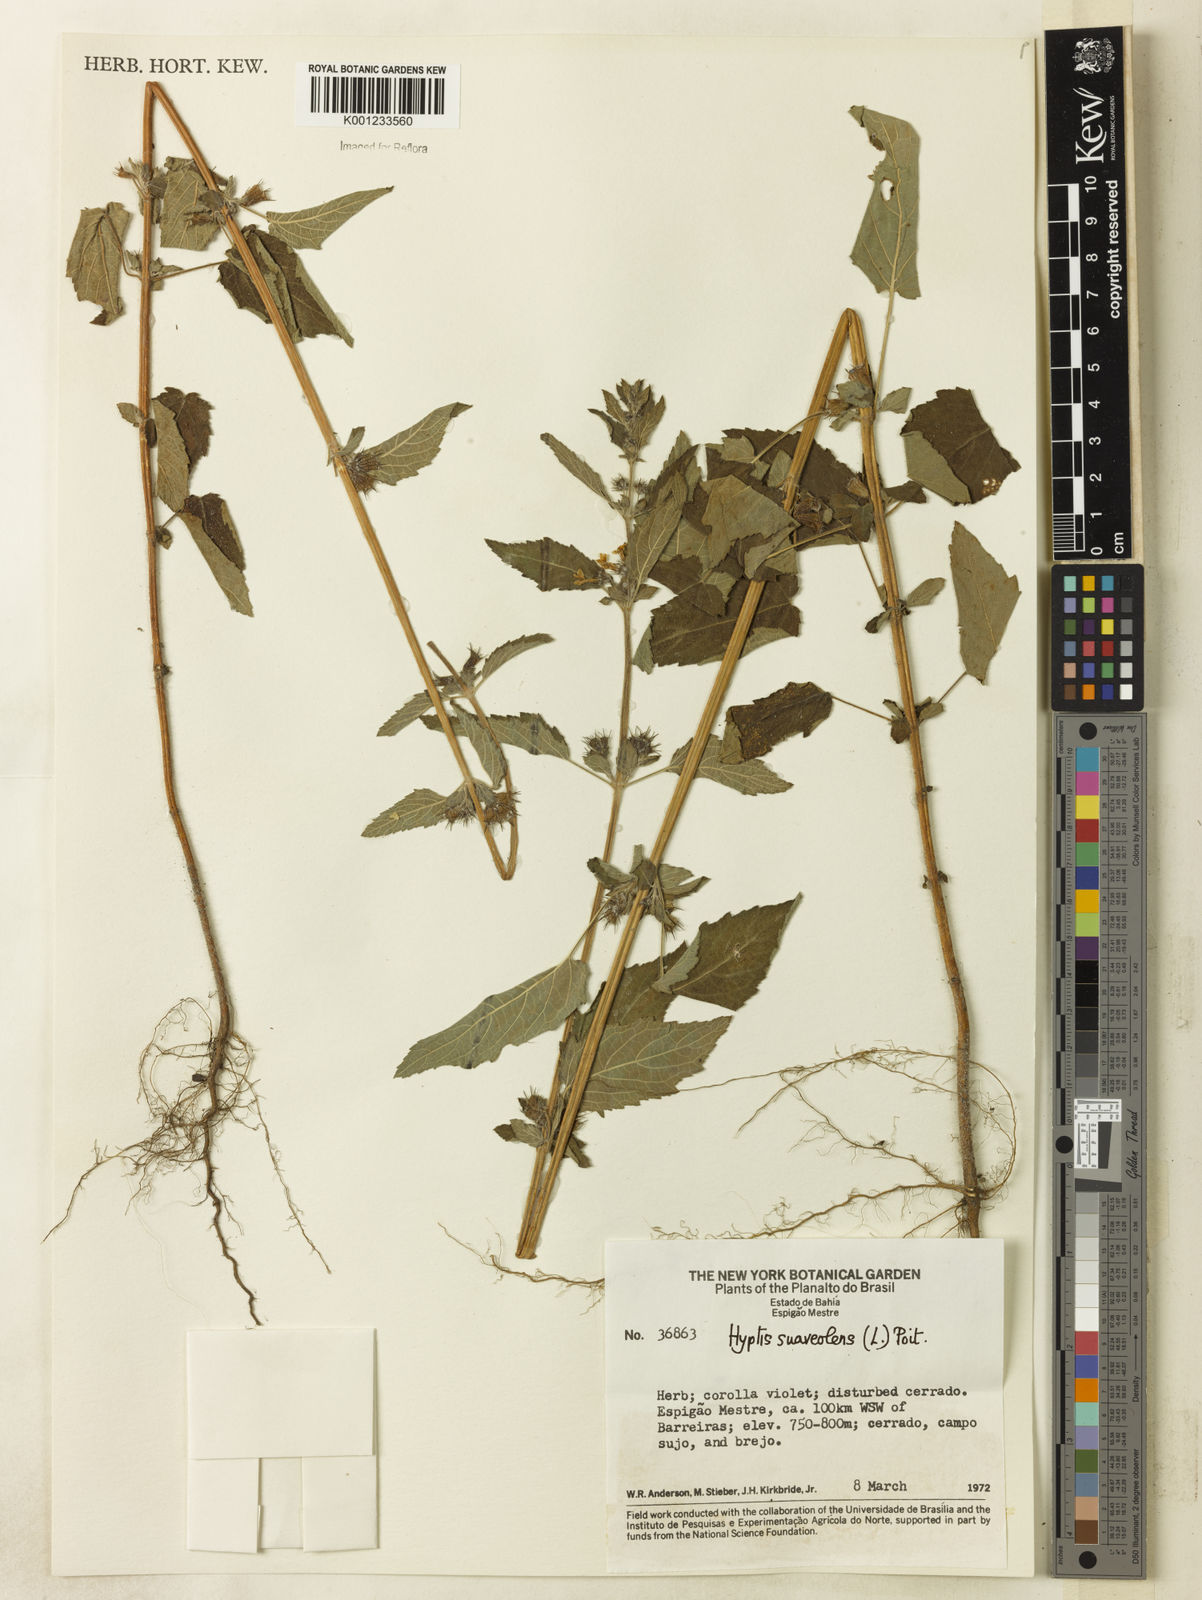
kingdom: Plantae
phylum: Tracheophyta
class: Magnoliopsida
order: Lamiales
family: Lamiaceae
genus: Mesosphaerum
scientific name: Mesosphaerum suaveolens
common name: Pignut
